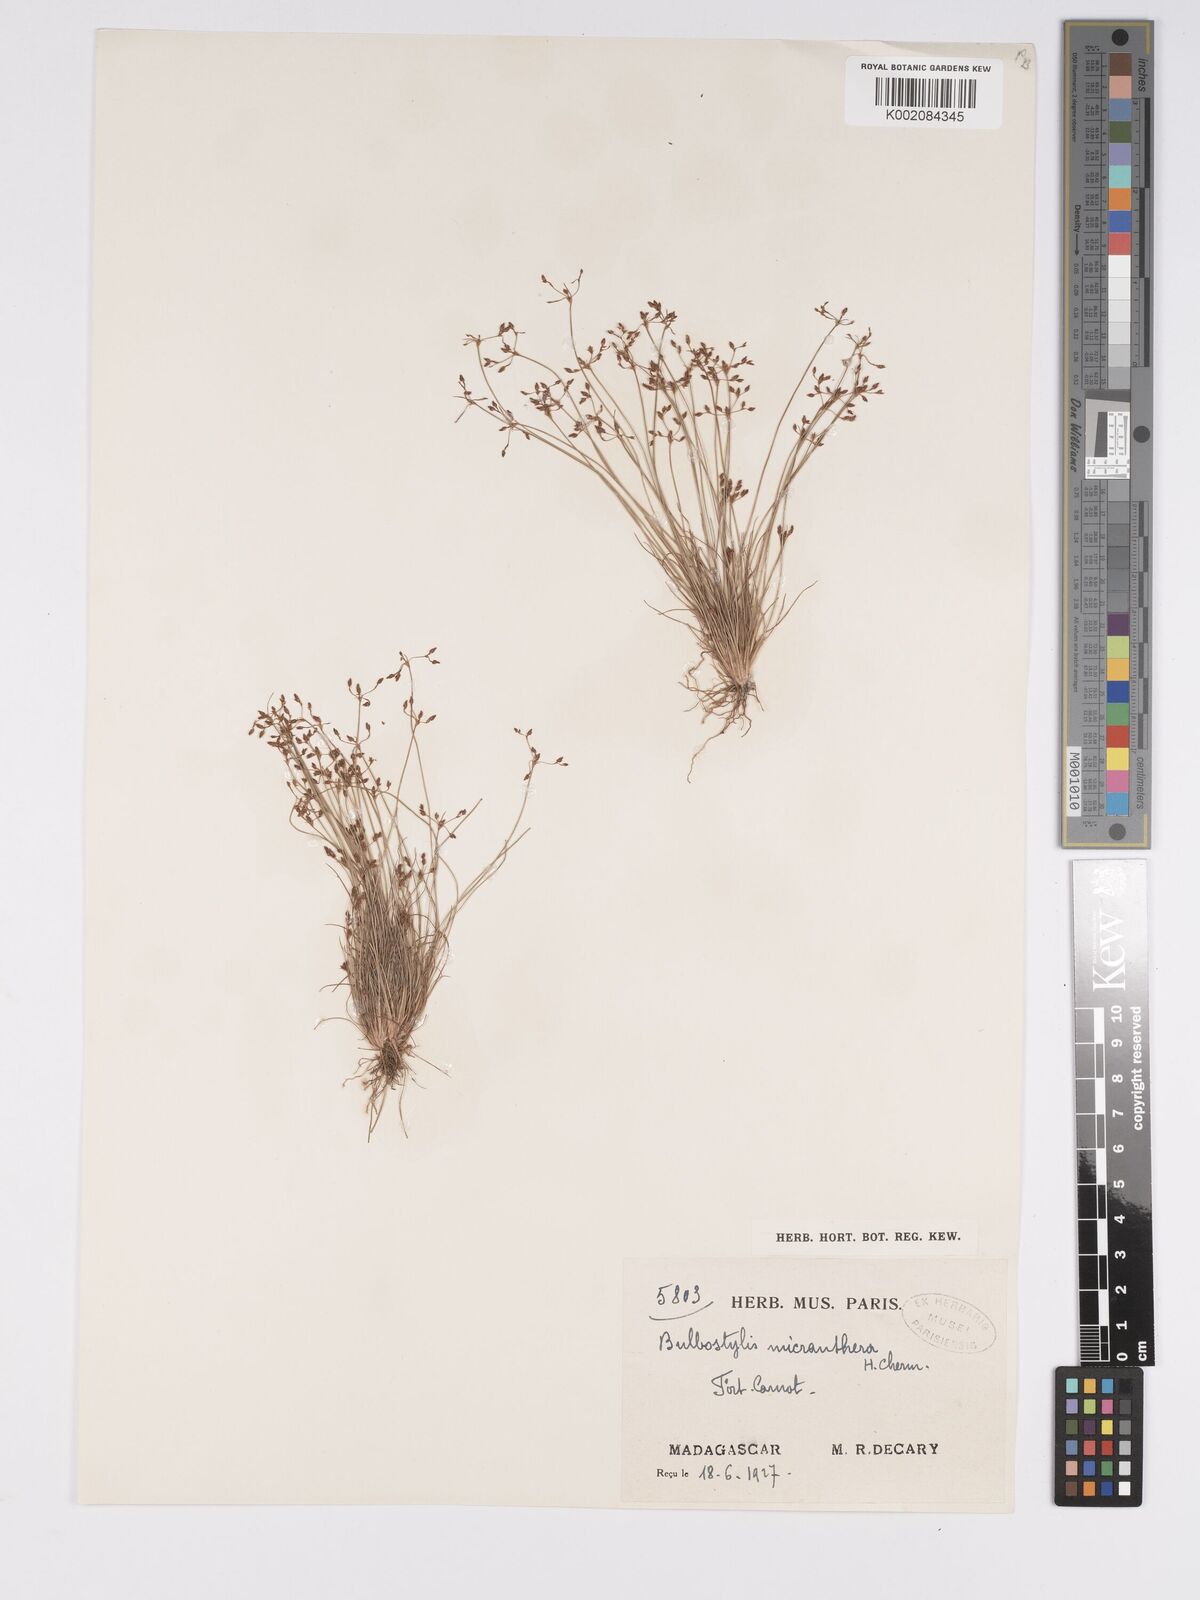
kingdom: Plantae
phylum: Tracheophyta
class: Liliopsida
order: Poales
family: Cyperaceae
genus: Bulbostylis
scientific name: Bulbostylis micranthera
